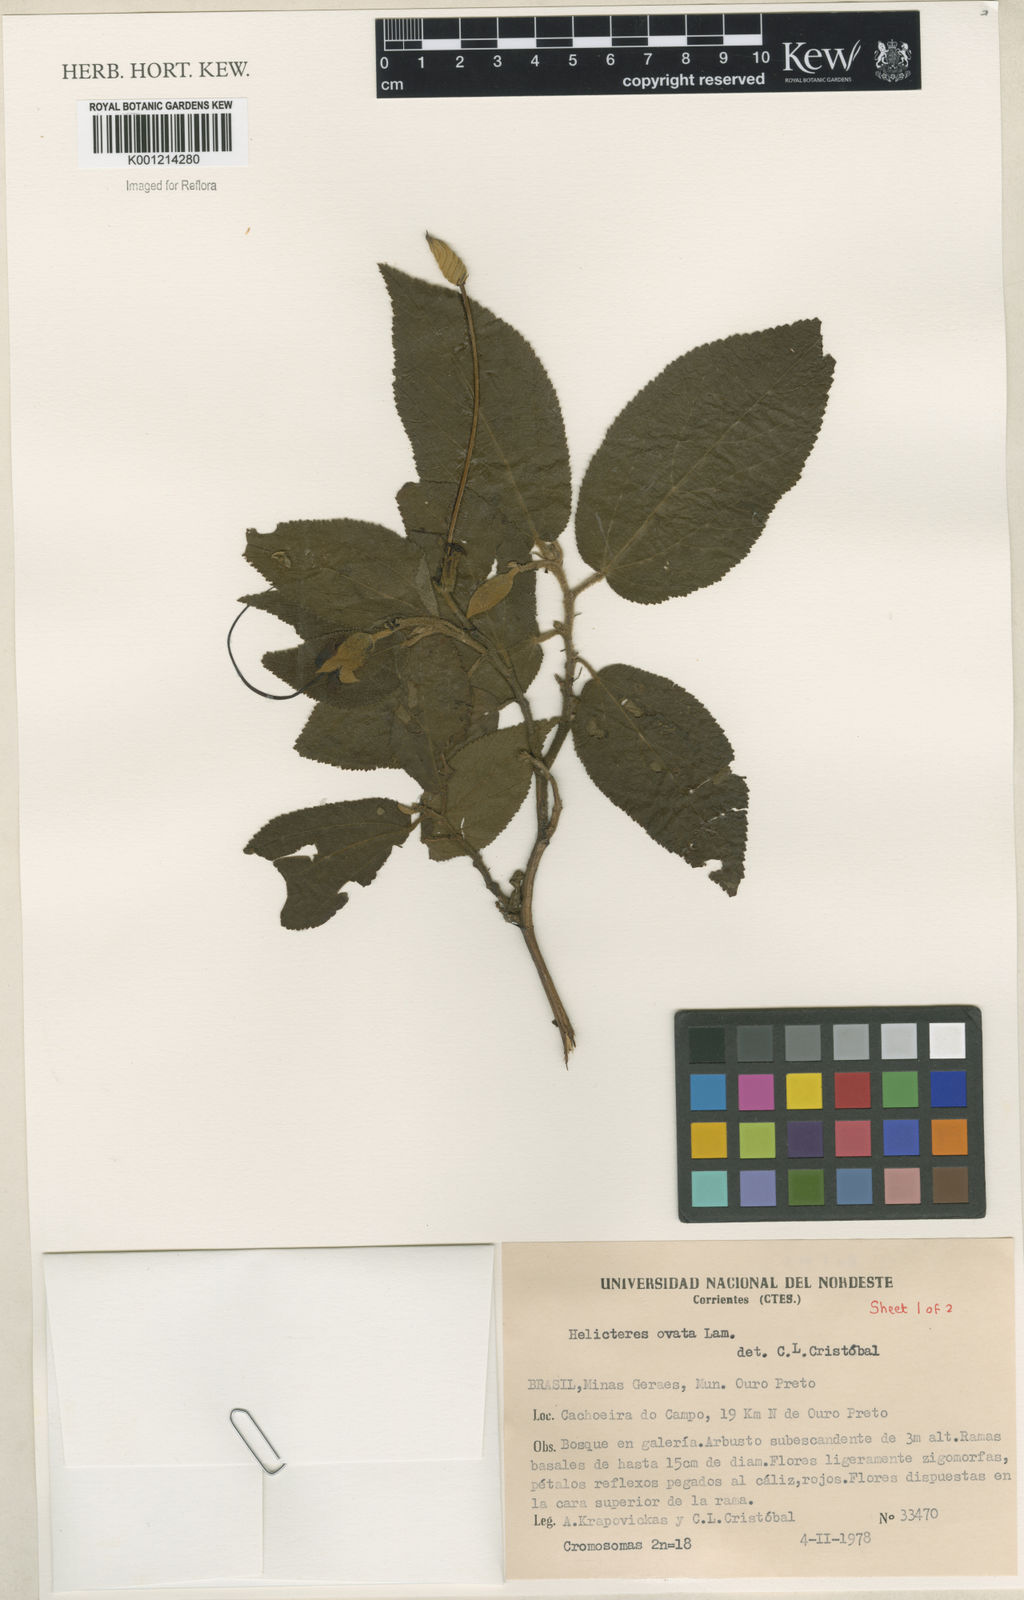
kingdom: Plantae
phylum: Tracheophyta
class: Magnoliopsida
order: Malvales
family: Malvaceae
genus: Helicteres
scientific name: Helicteres ovata
